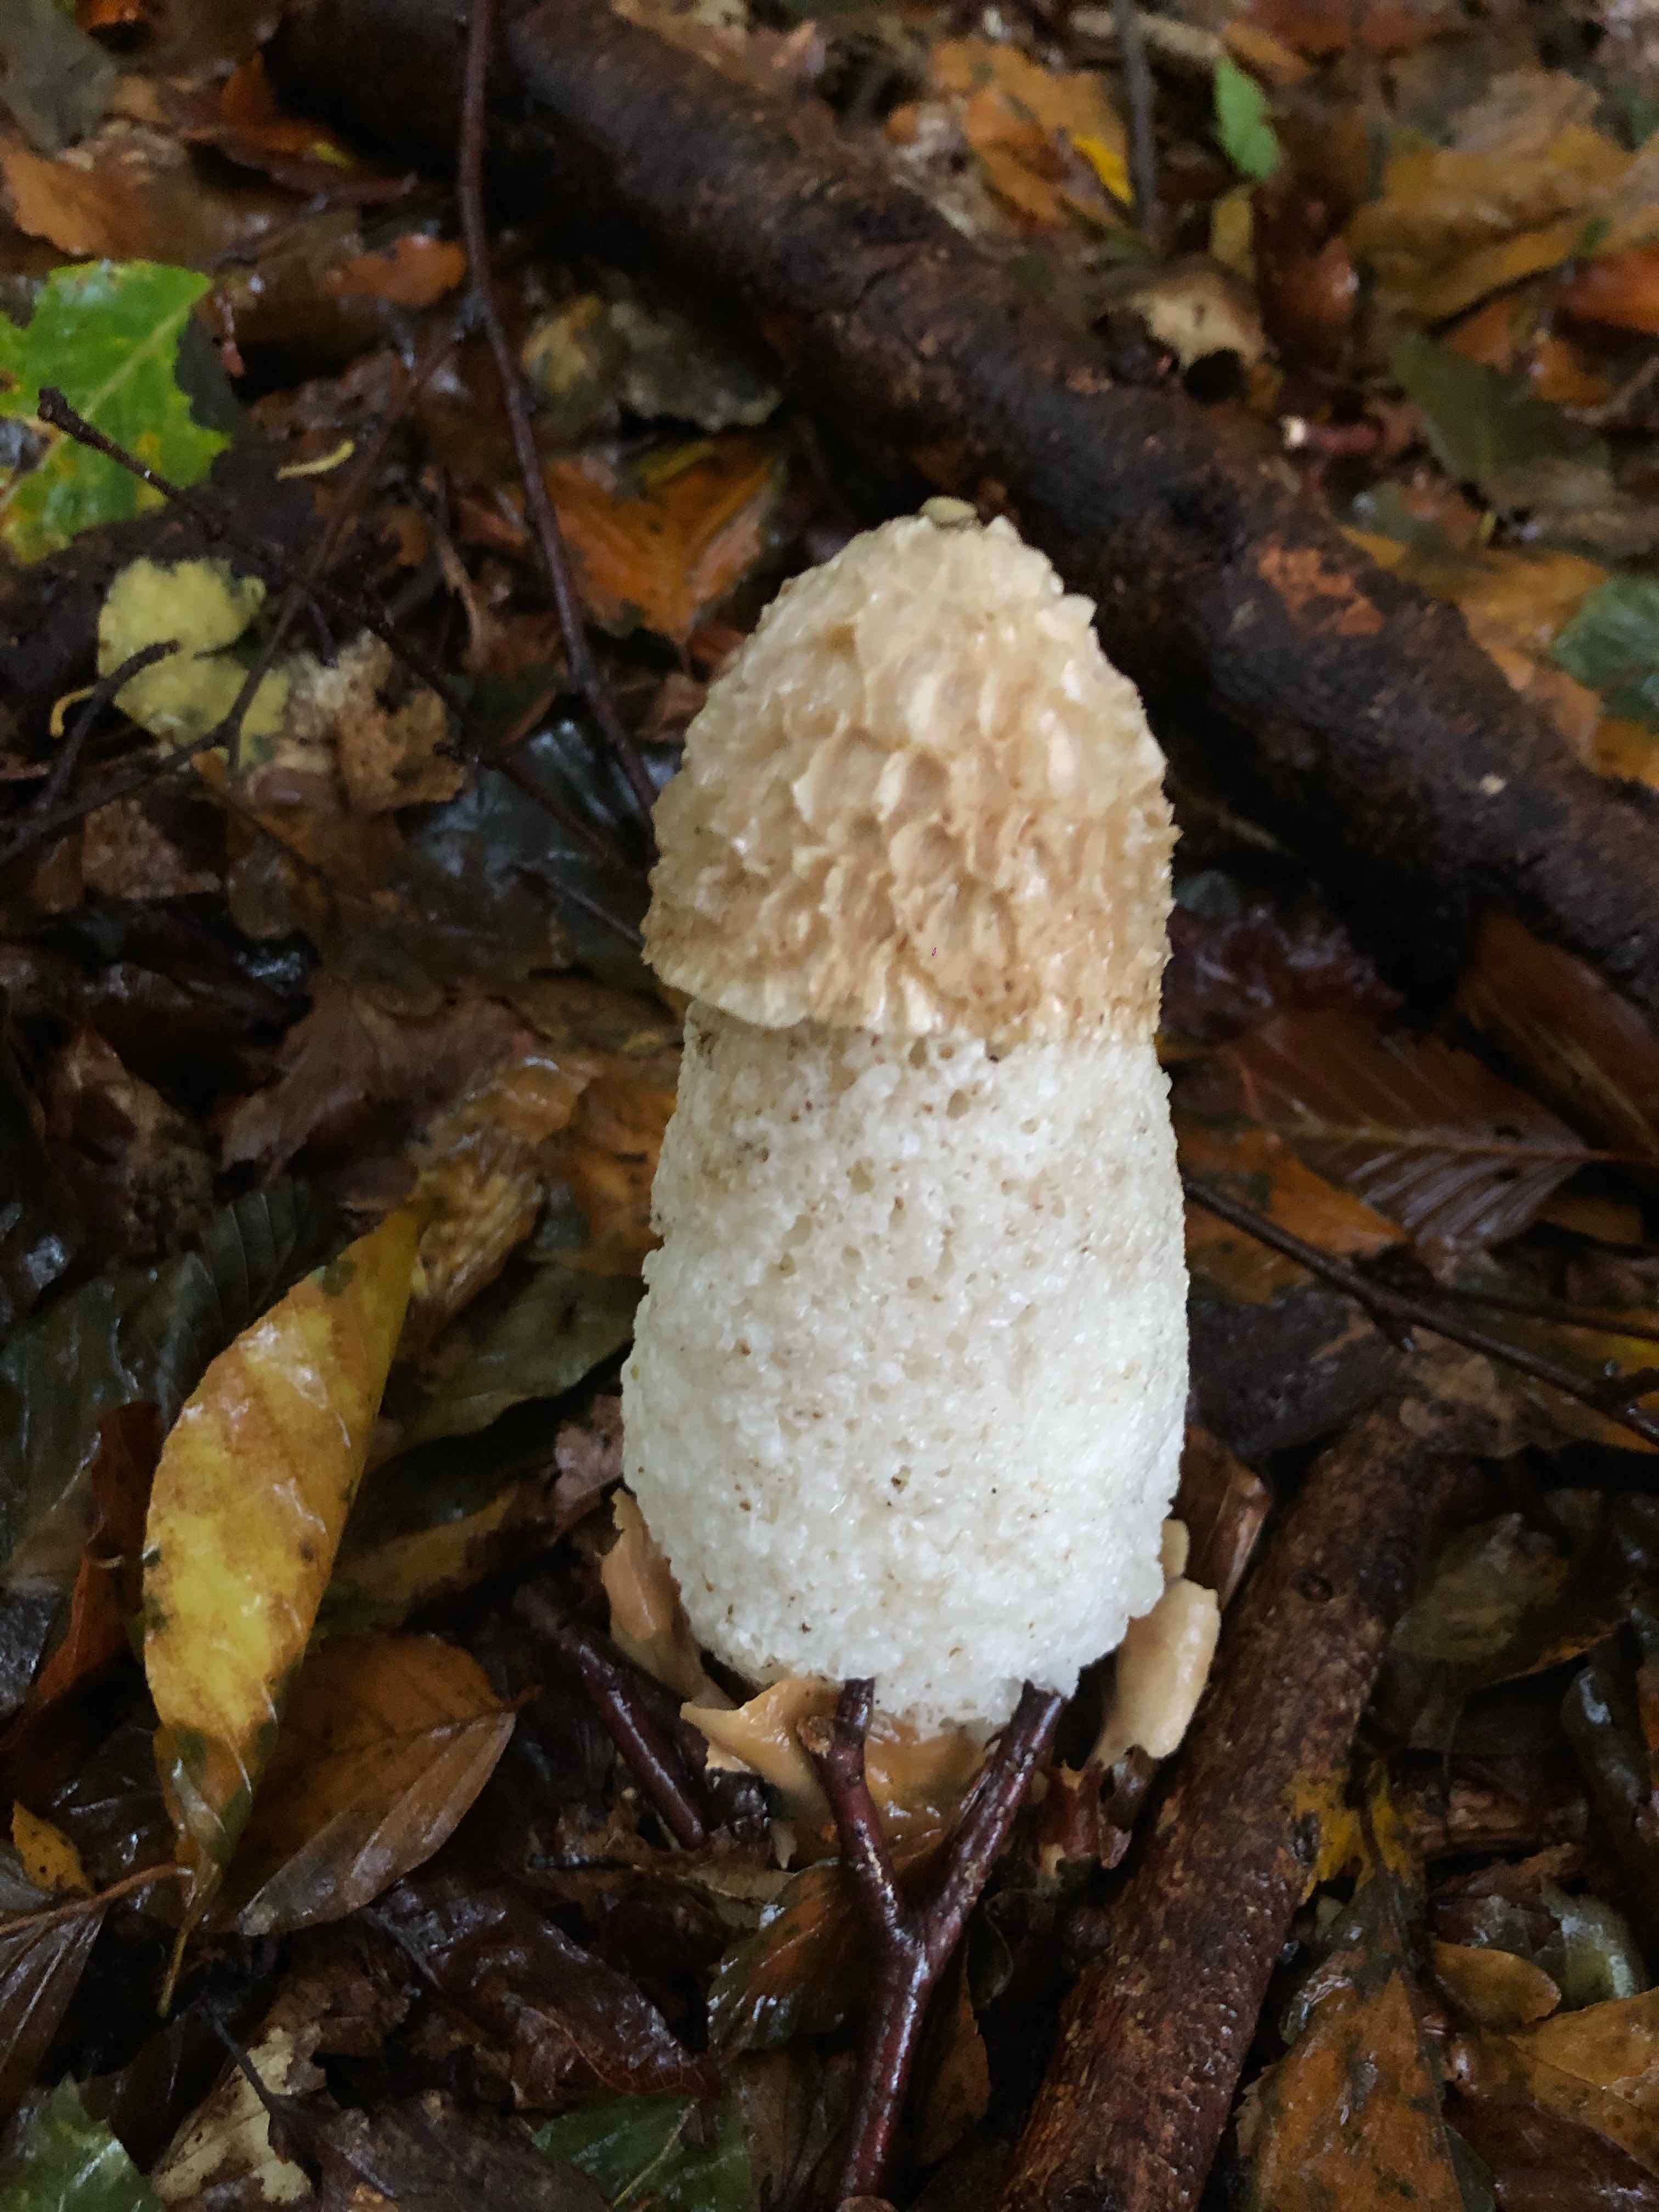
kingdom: Fungi
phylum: Basidiomycota
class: Agaricomycetes
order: Phallales
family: Phallaceae
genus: Phallus
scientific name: Phallus impudicus
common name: almindelig stinksvamp
